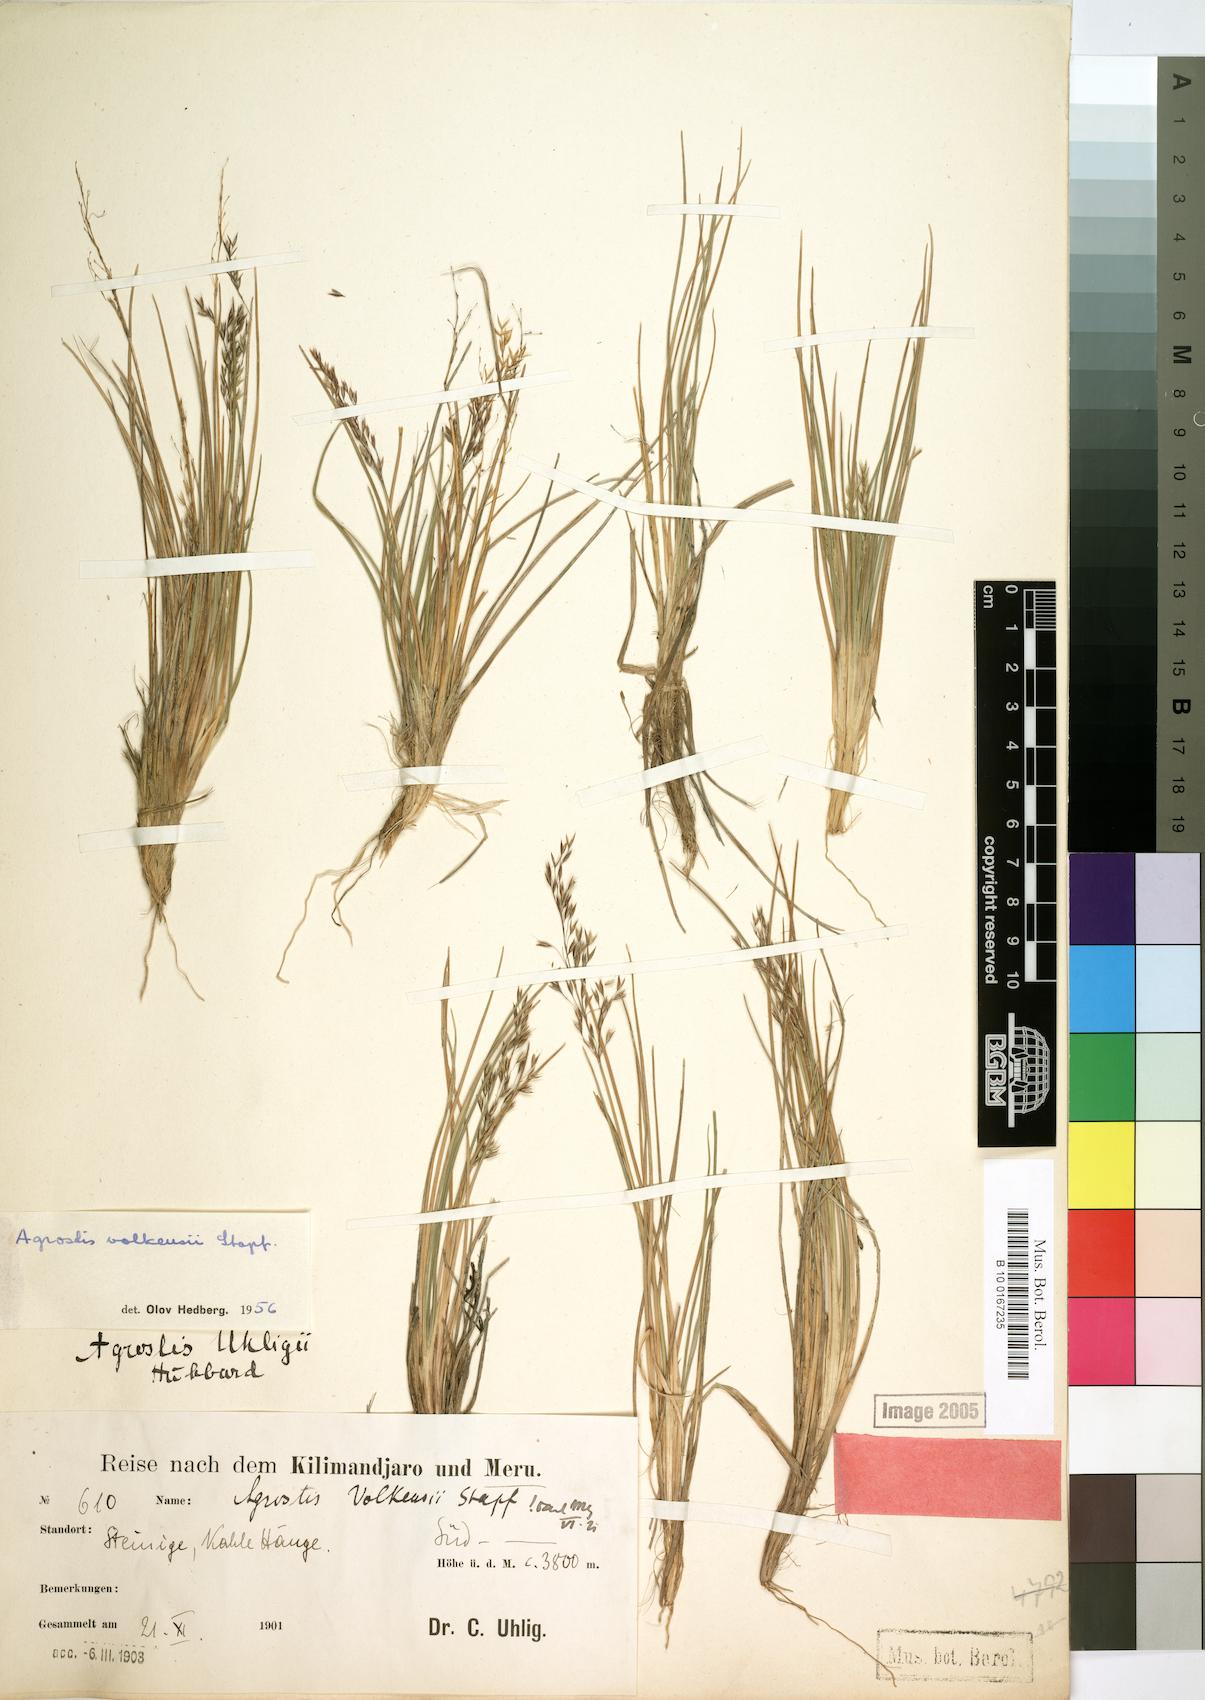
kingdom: Plantae
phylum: Tracheophyta
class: Liliopsida
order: Poales
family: Poaceae
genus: Agrostis
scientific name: Agrostis volkensii
